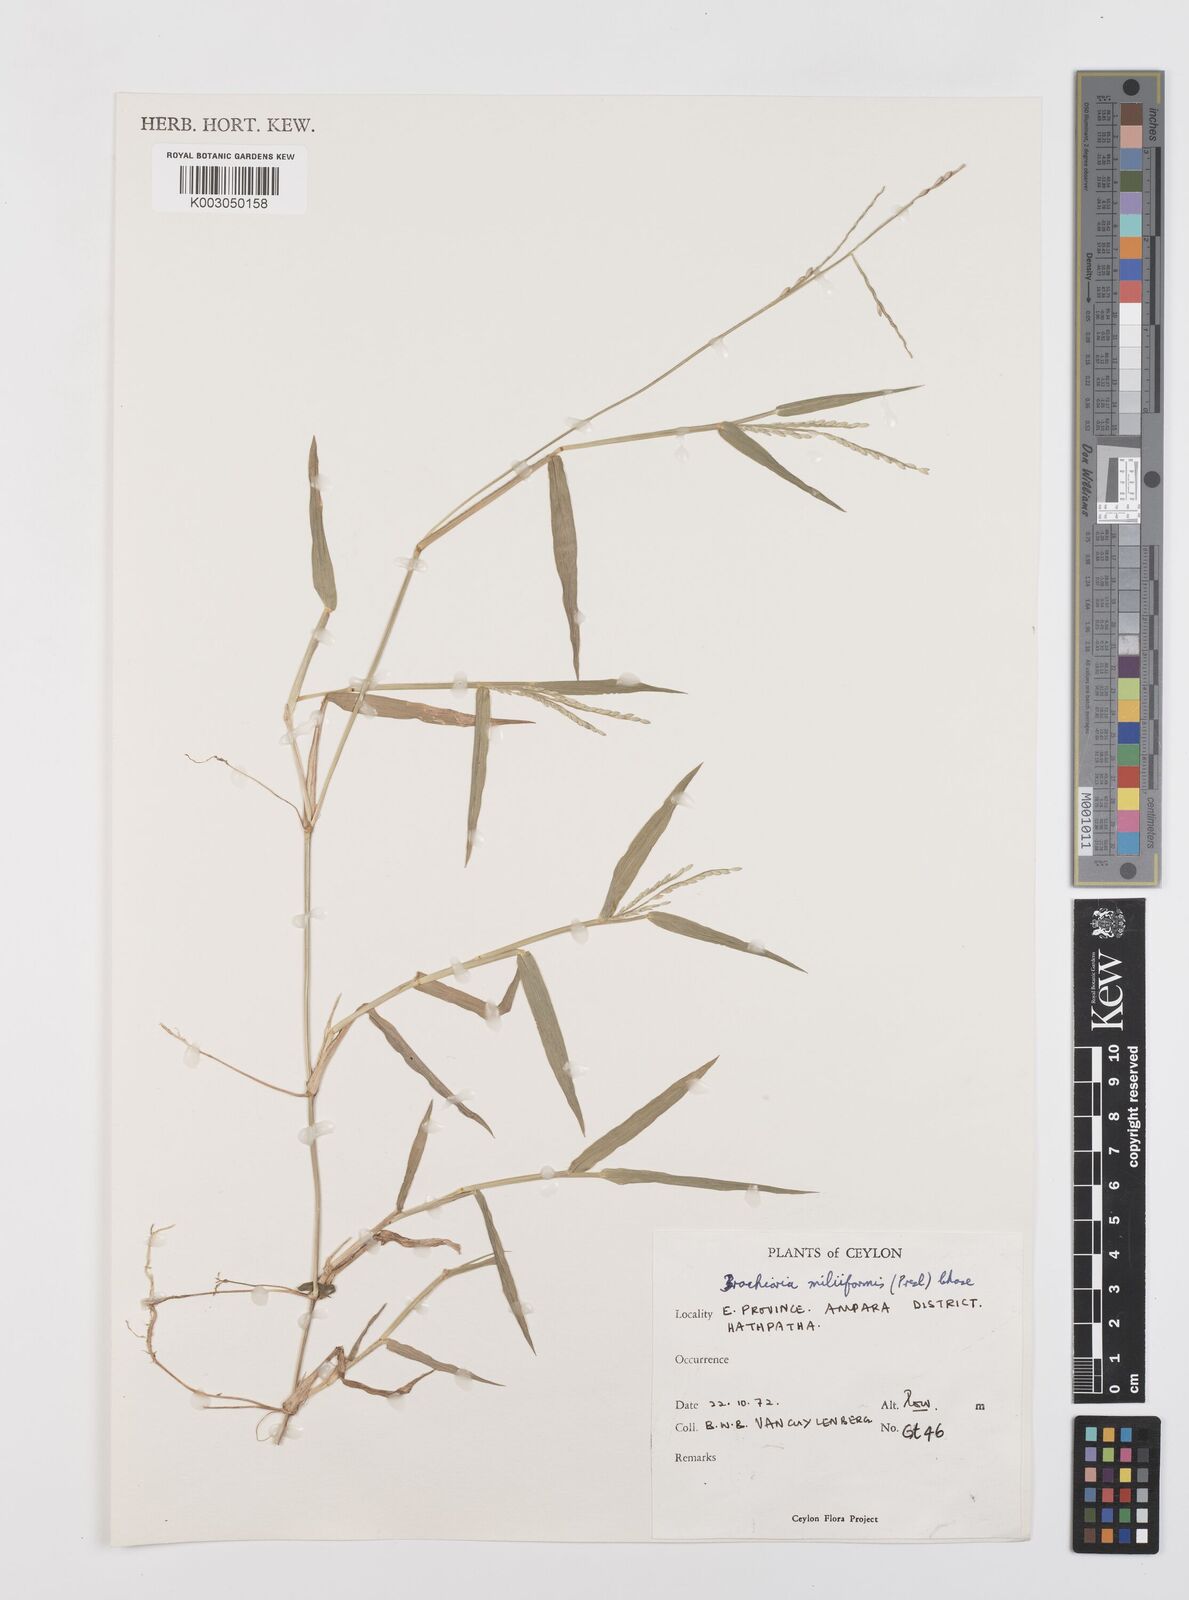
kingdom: Plantae
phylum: Tracheophyta
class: Liliopsida
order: Poales
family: Poaceae
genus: Urochloa
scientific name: Urochloa subquadripara
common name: Armgrass millet
